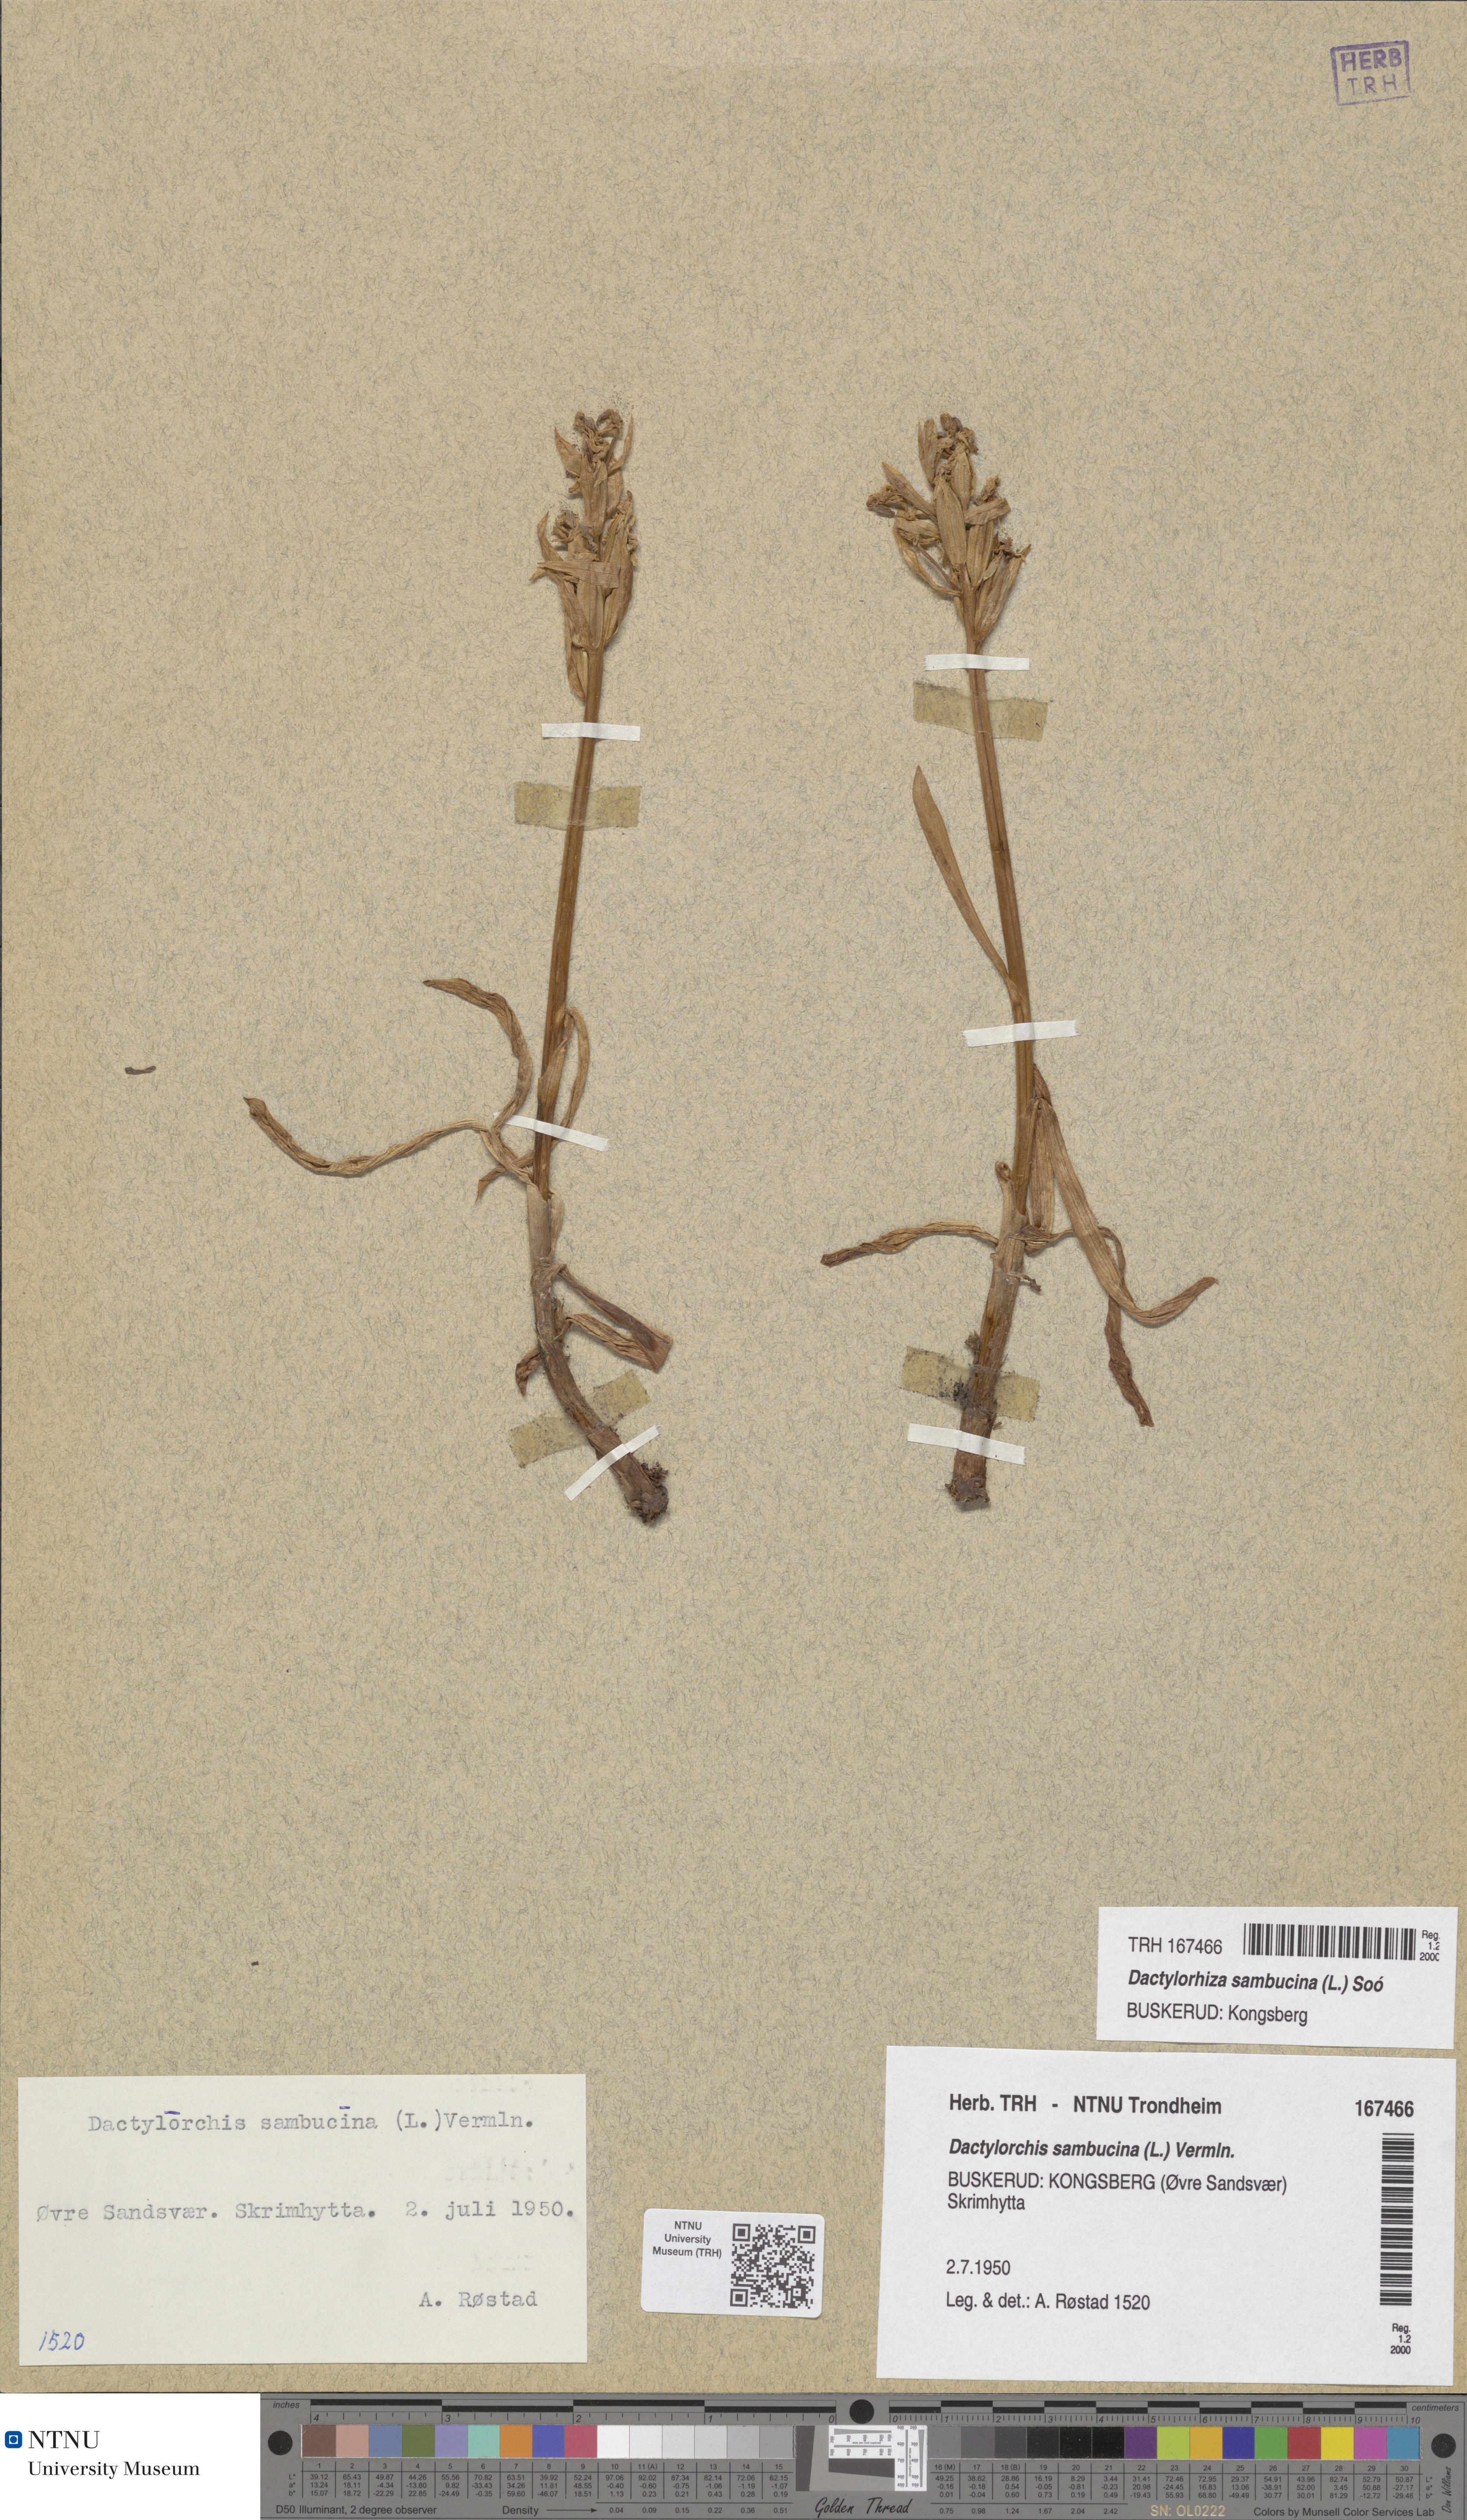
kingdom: Plantae
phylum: Tracheophyta
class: Liliopsida
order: Asparagales
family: Orchidaceae
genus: Dactylorhiza
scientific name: Dactylorhiza sambucina
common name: Elder-flowered orchid
